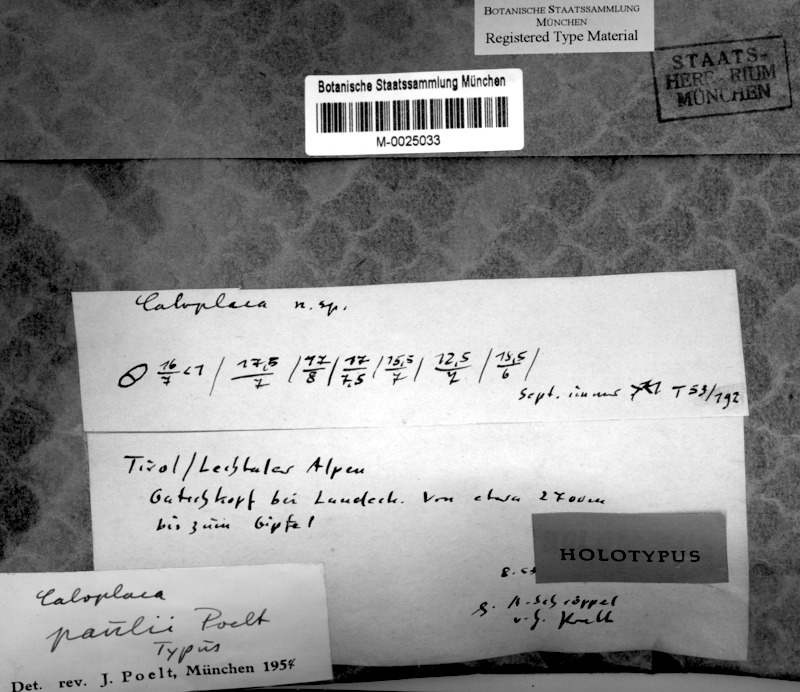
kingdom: Fungi
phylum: Ascomycota
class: Lecanoromycetes
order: Teloschistales
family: Teloschistaceae
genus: Variospora
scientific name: Variospora paulii
